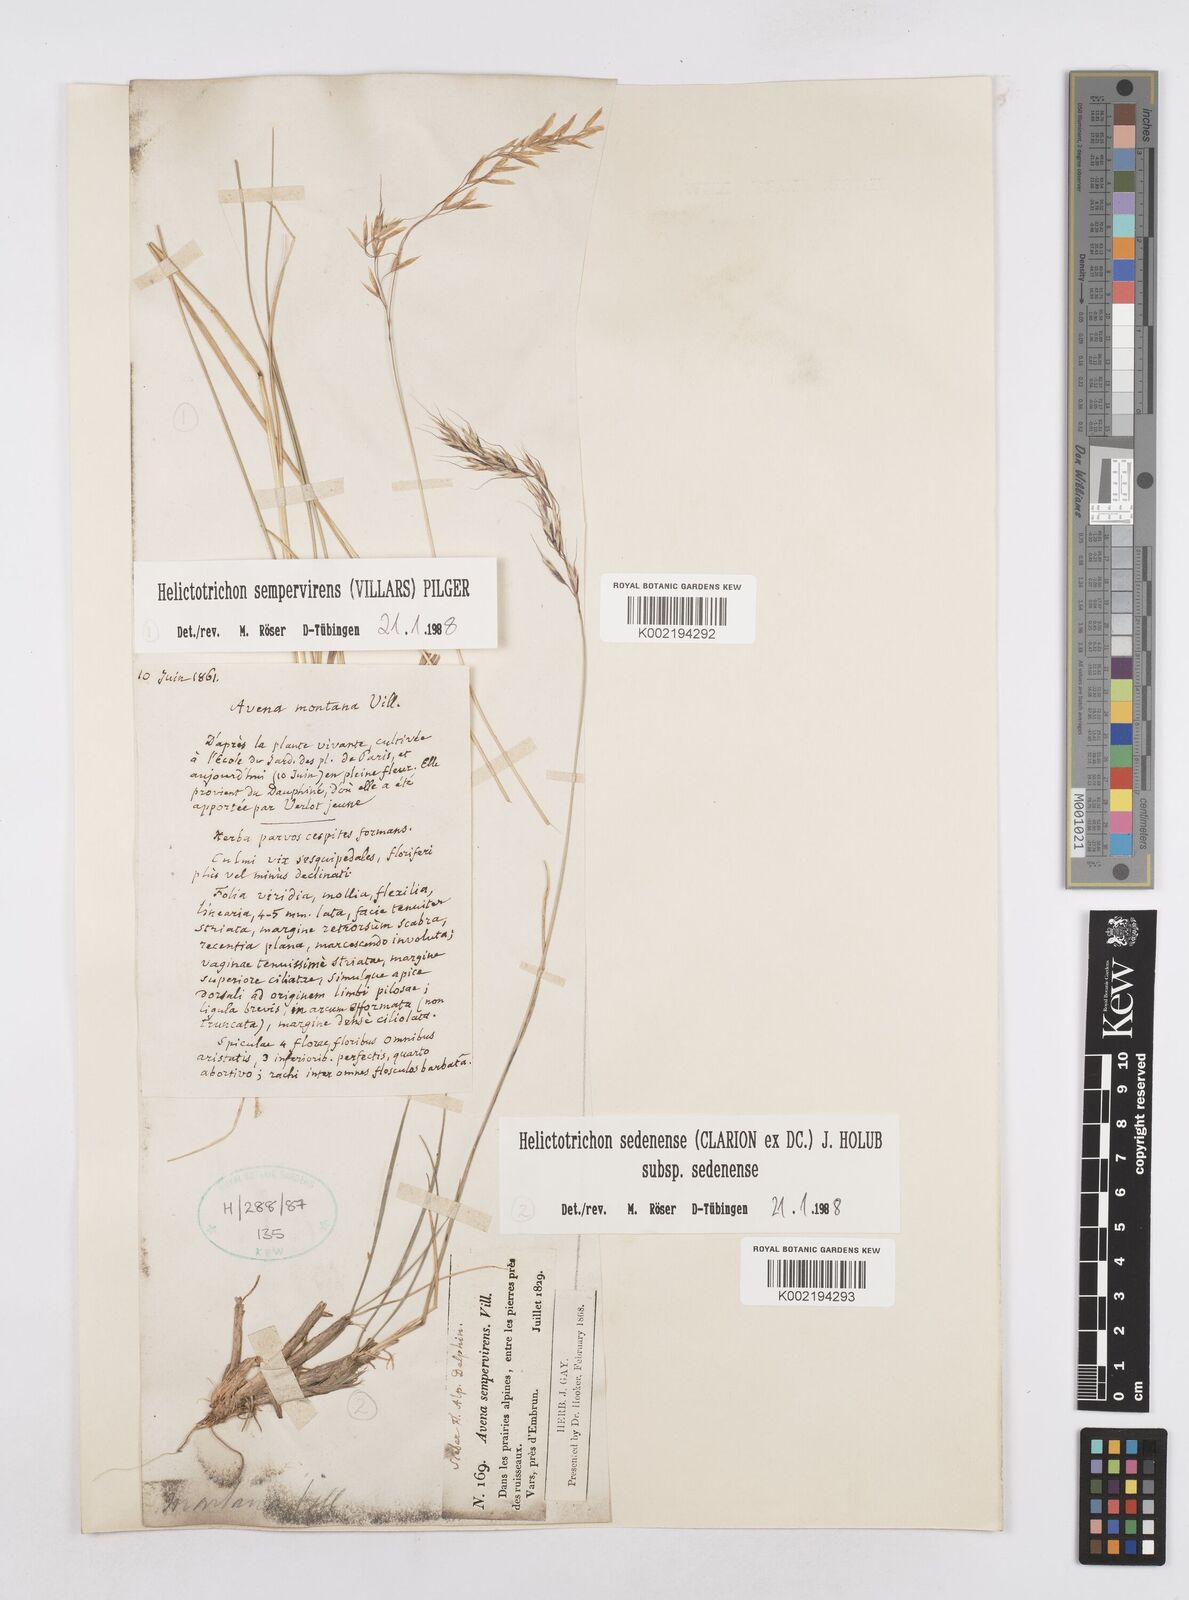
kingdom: Plantae
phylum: Tracheophyta
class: Liliopsida
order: Poales
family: Poaceae
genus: Helictotrichon
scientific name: Helictotrichon sedenense
